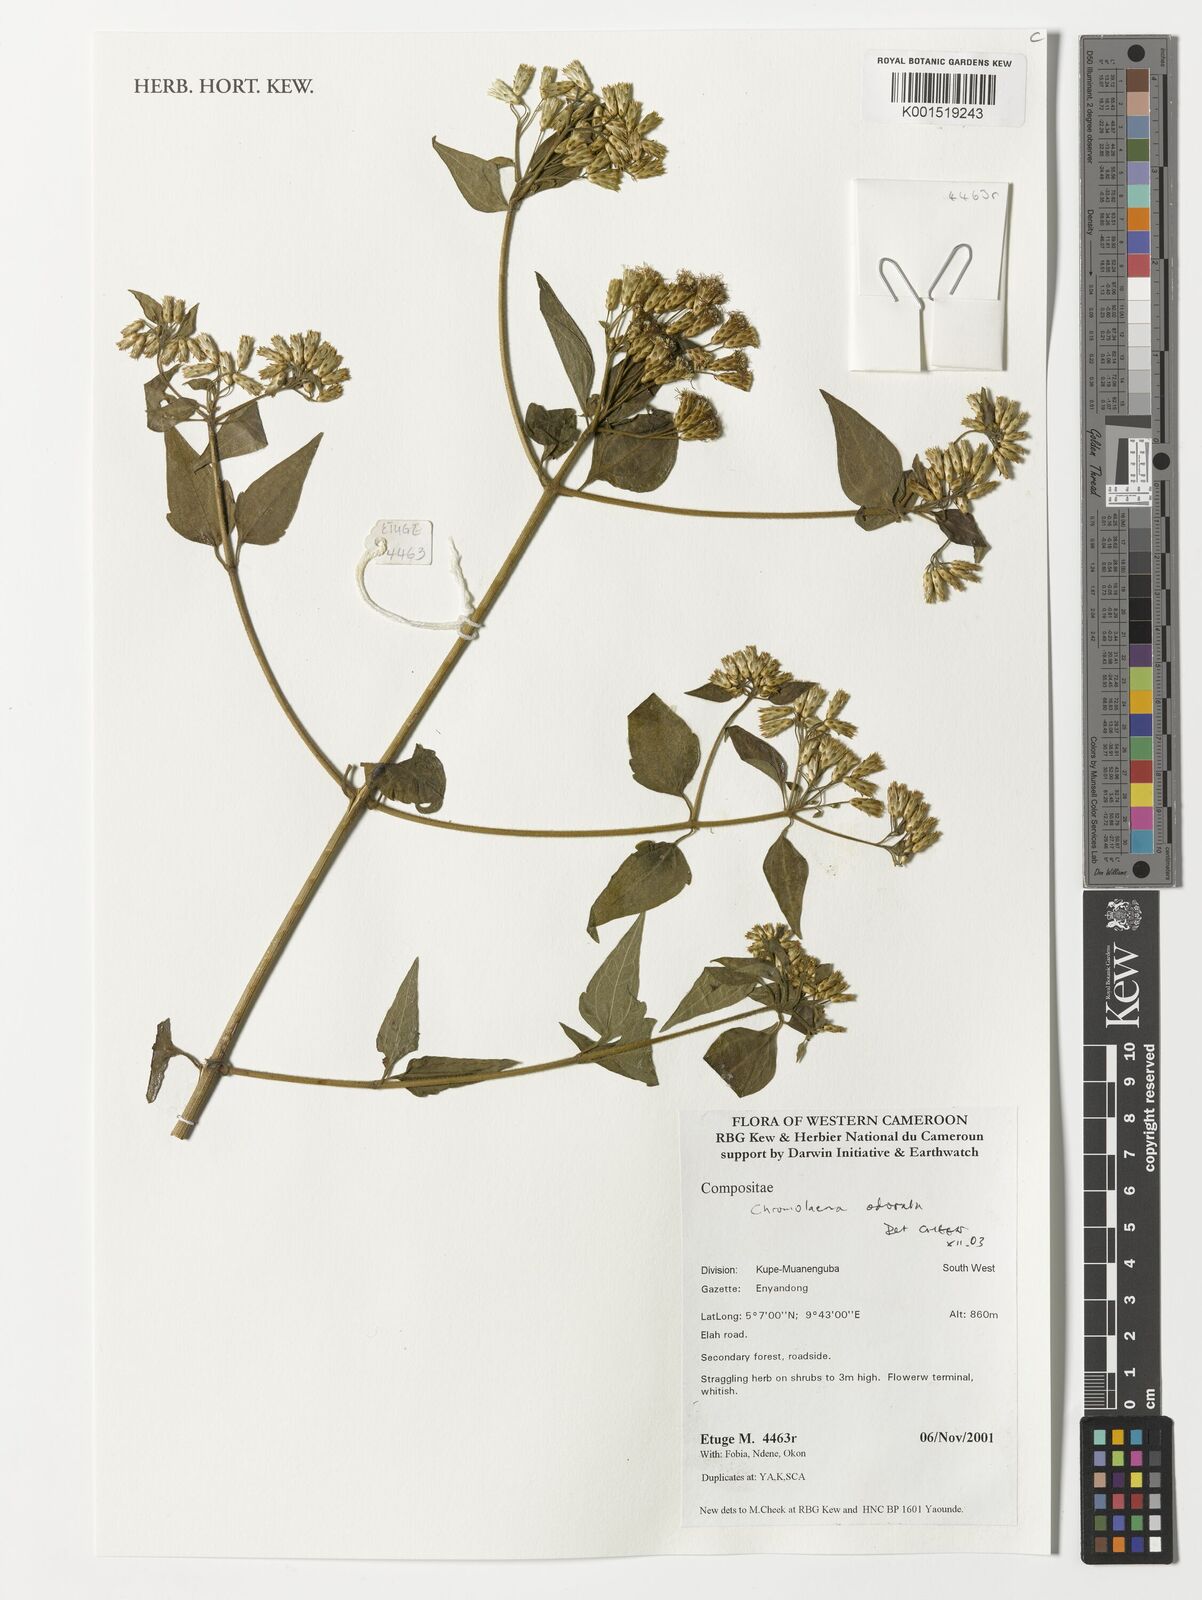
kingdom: Plantae
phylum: Tracheophyta
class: Magnoliopsida
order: Asterales
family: Asteraceae
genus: Chromolaena
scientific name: Chromolaena odorata
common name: Siamweed
